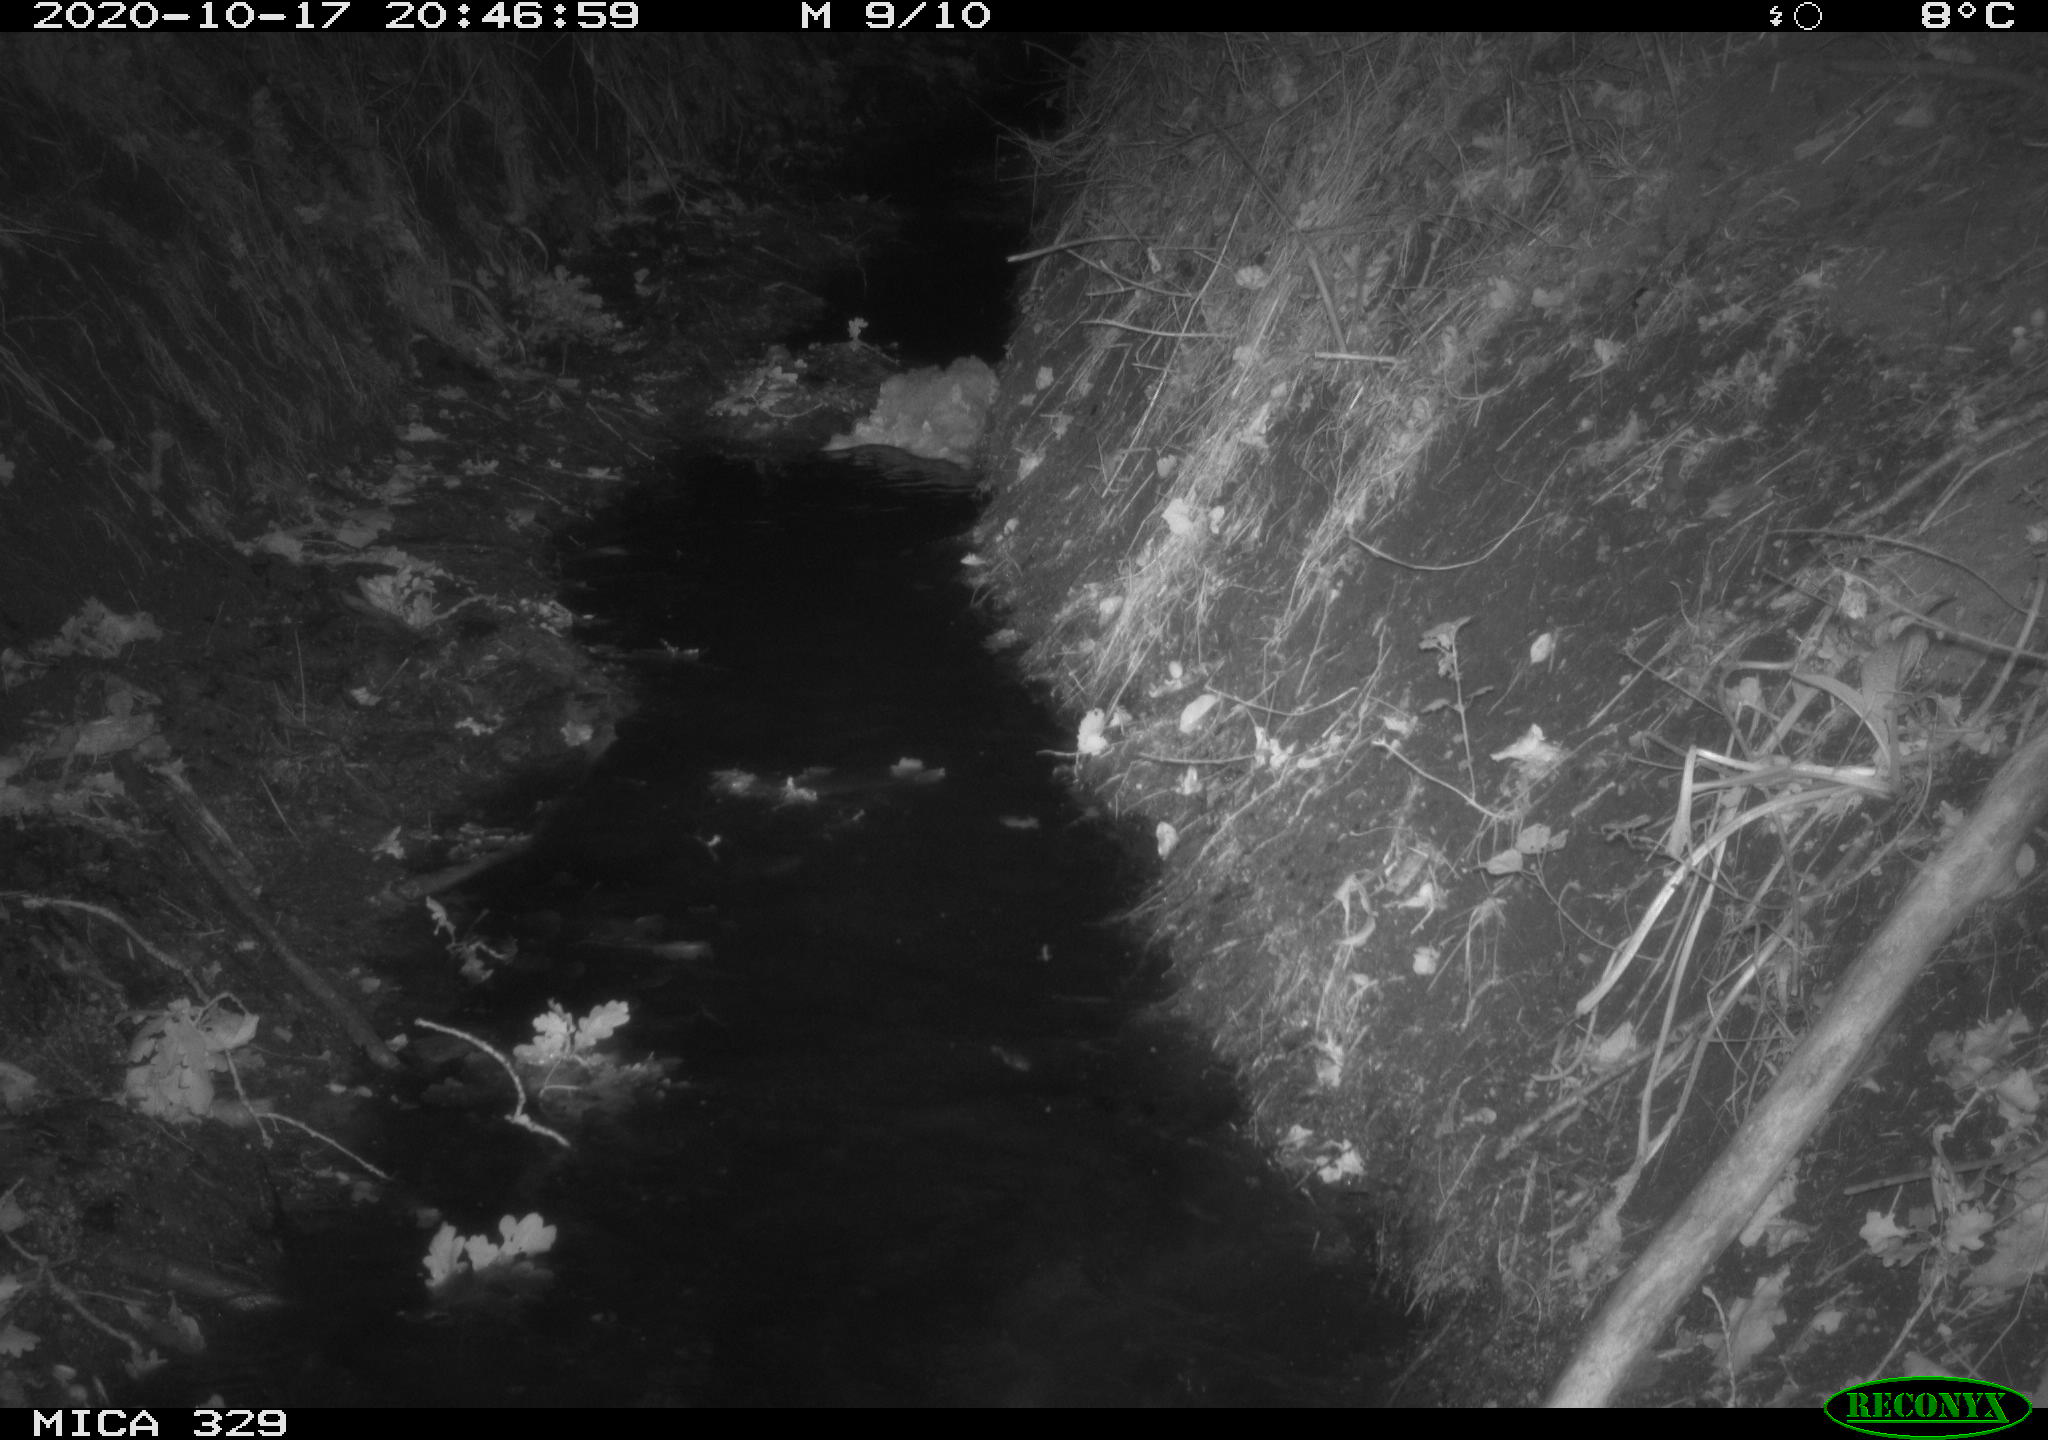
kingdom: Animalia
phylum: Chordata
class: Mammalia
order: Rodentia
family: Cricetidae
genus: Ondatra
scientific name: Ondatra zibethicus
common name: Muskrat
